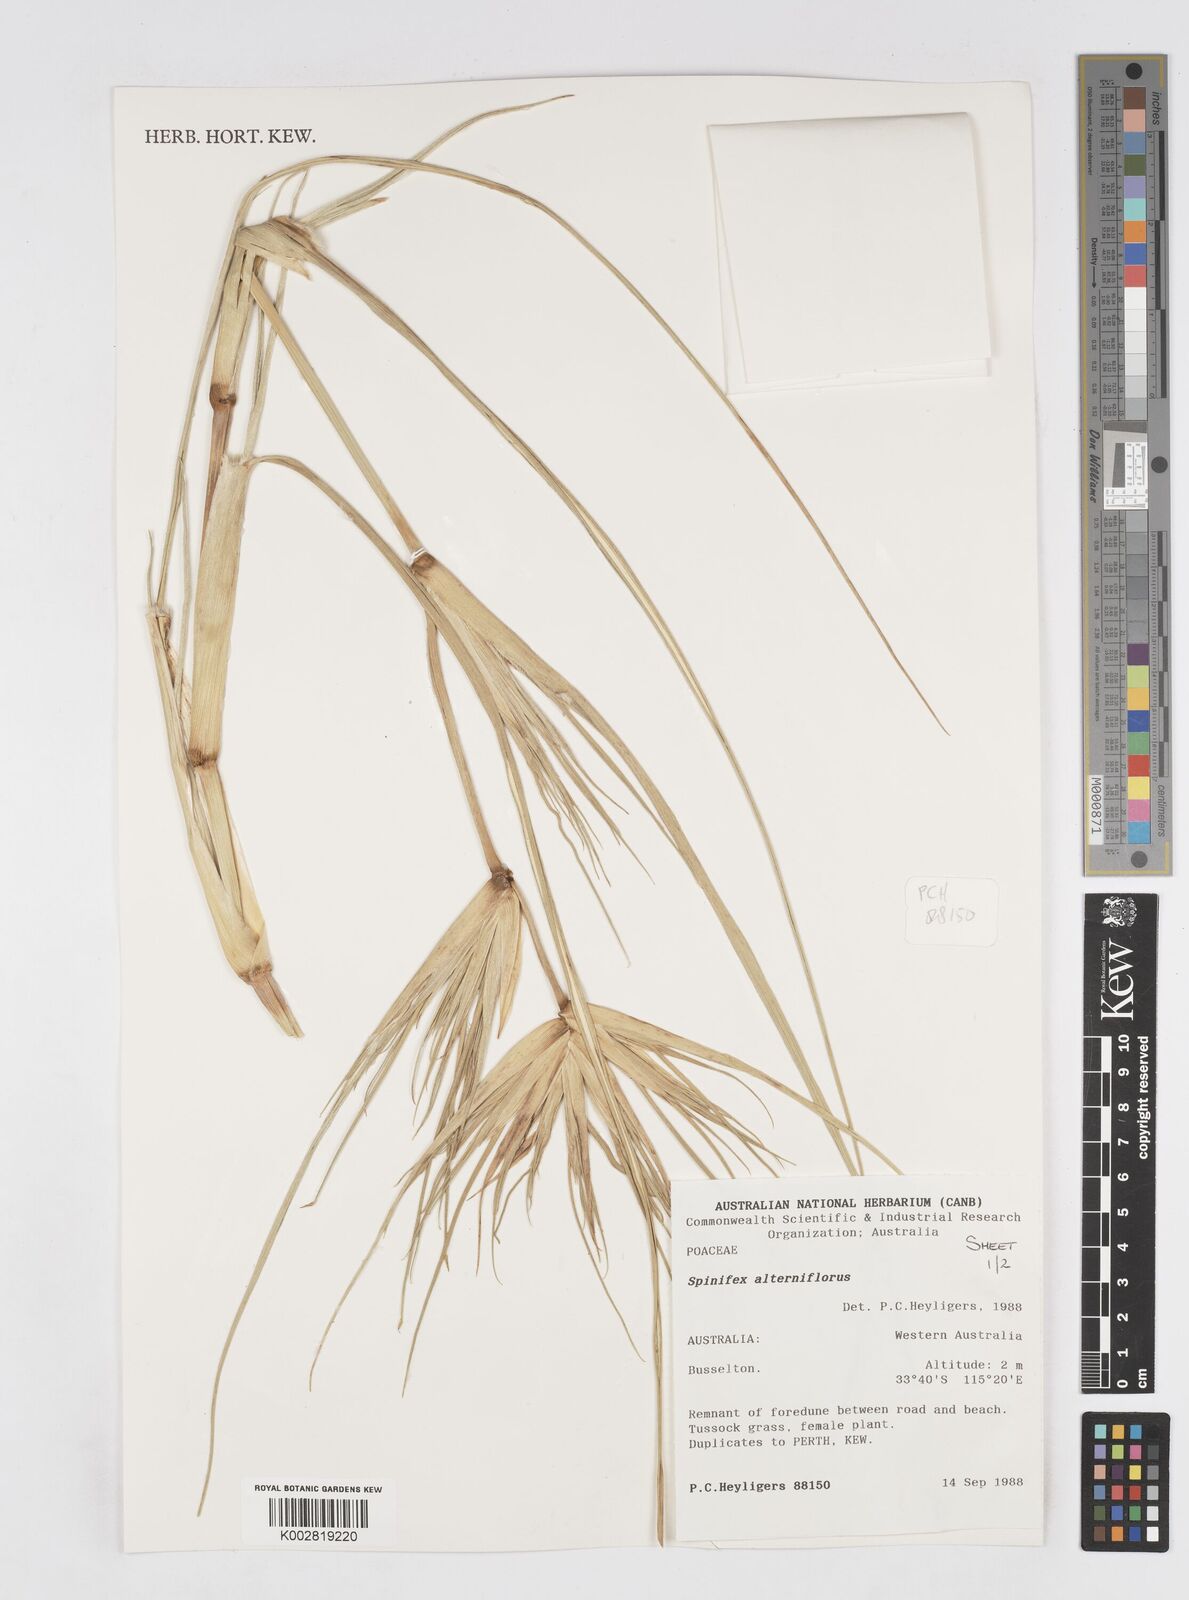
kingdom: Plantae
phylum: Tracheophyta
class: Liliopsida
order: Poales
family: Poaceae
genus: Spinifex
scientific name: Spinifex alterniflorus
